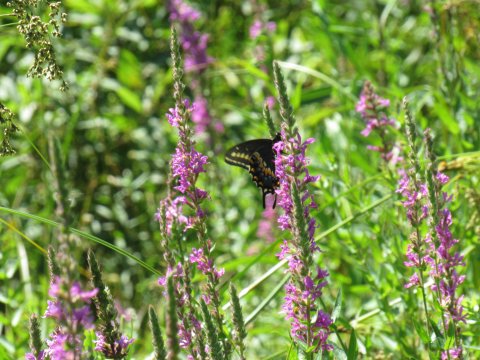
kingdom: Animalia
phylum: Arthropoda
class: Insecta
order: Lepidoptera
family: Papilionidae
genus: Papilio
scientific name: Papilio polyxenes
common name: Black Swallowtail
